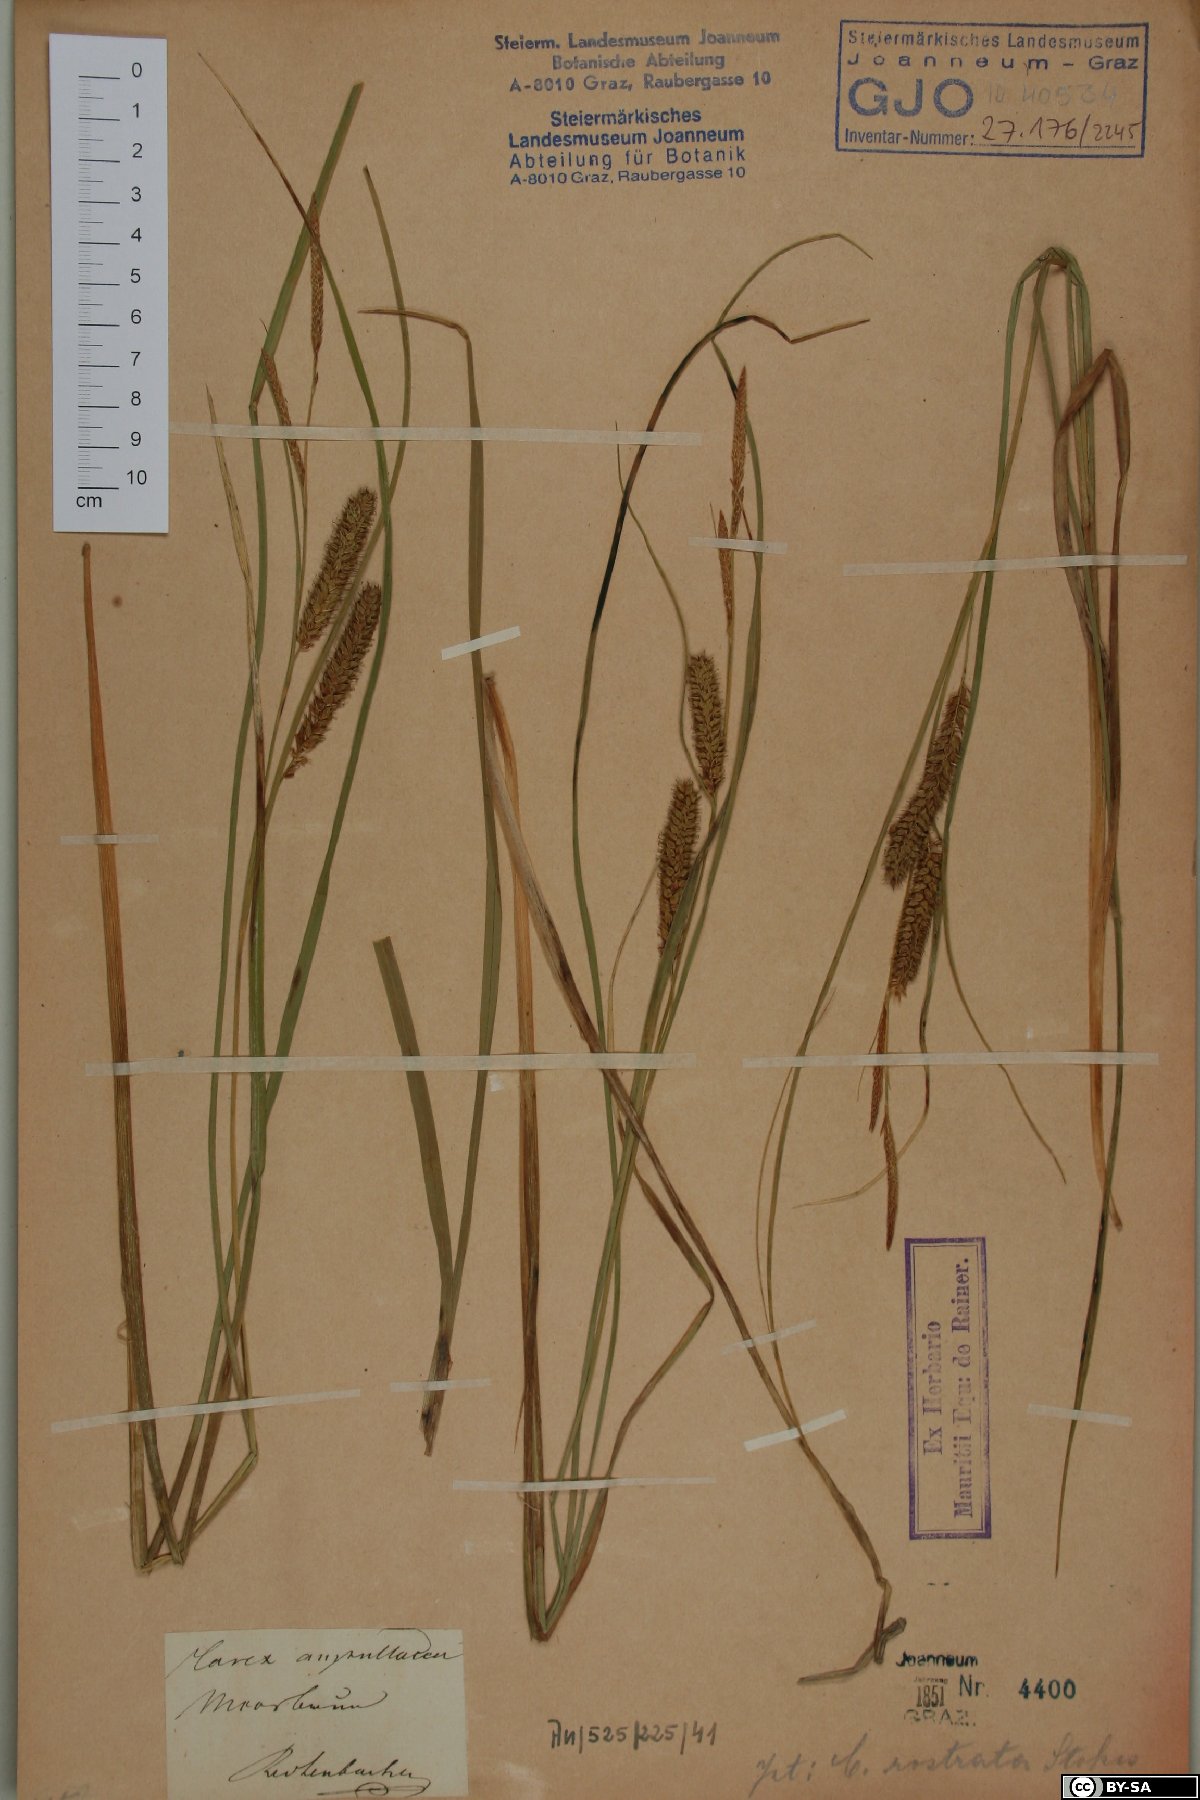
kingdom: Plantae
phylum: Tracheophyta
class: Liliopsida
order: Poales
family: Cyperaceae
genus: Carex
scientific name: Carex rostrata
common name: Bottle sedge
